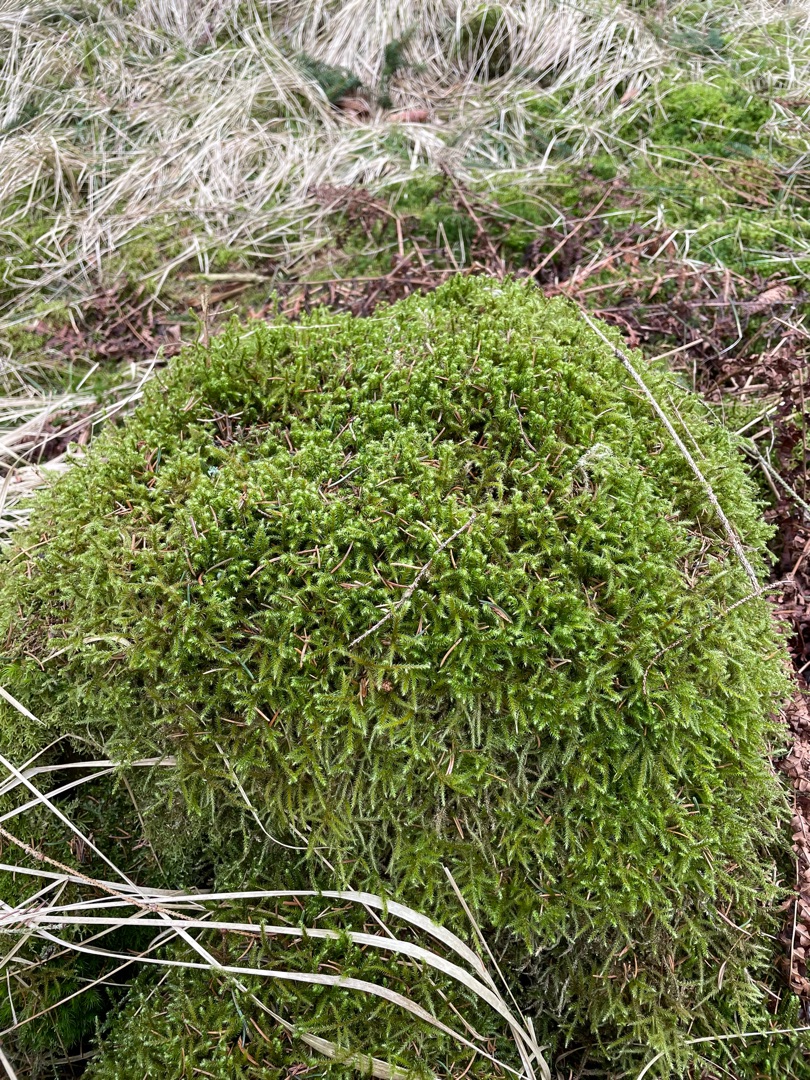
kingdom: Plantae
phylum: Bryophyta
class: Bryopsida
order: Hypnales
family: Hylocomiaceae
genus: Rhytidiadelphus
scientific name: Rhytidiadelphus loreus
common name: Ulvefod-kransemos
